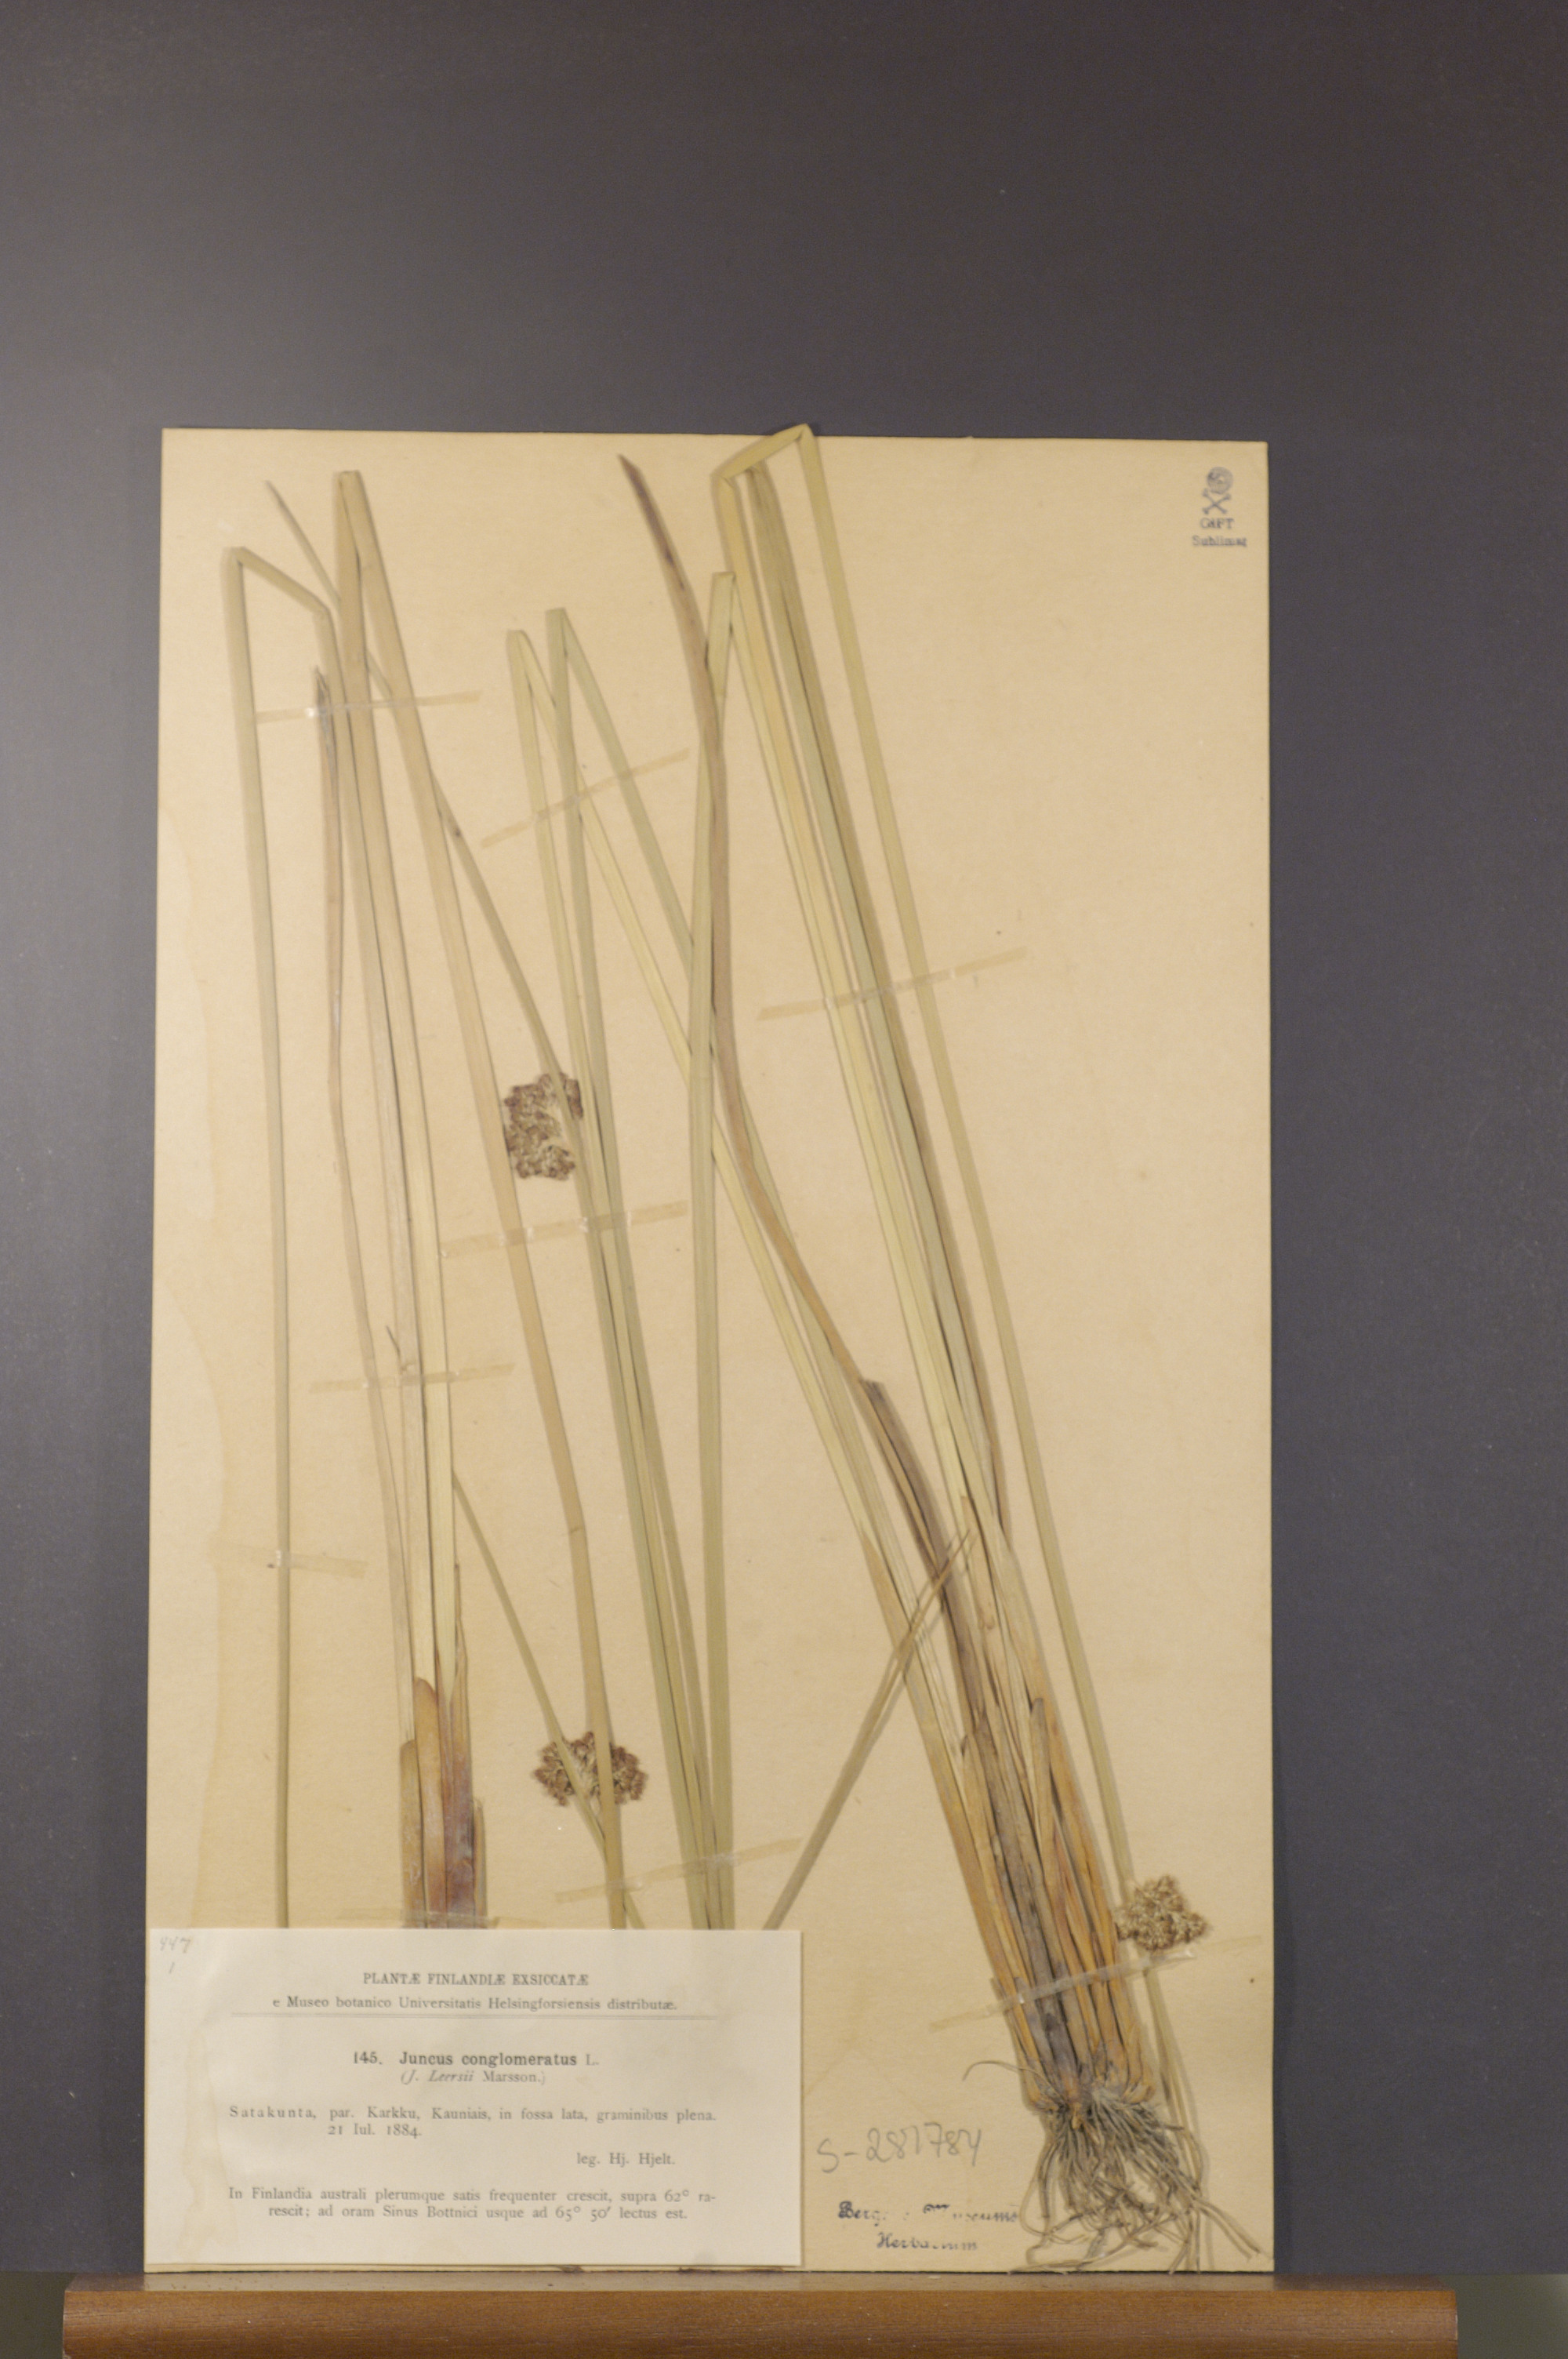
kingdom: Plantae
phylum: Tracheophyta
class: Liliopsida
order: Poales
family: Juncaceae
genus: Juncus
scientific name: Juncus conglomeratus
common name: Compact rush
